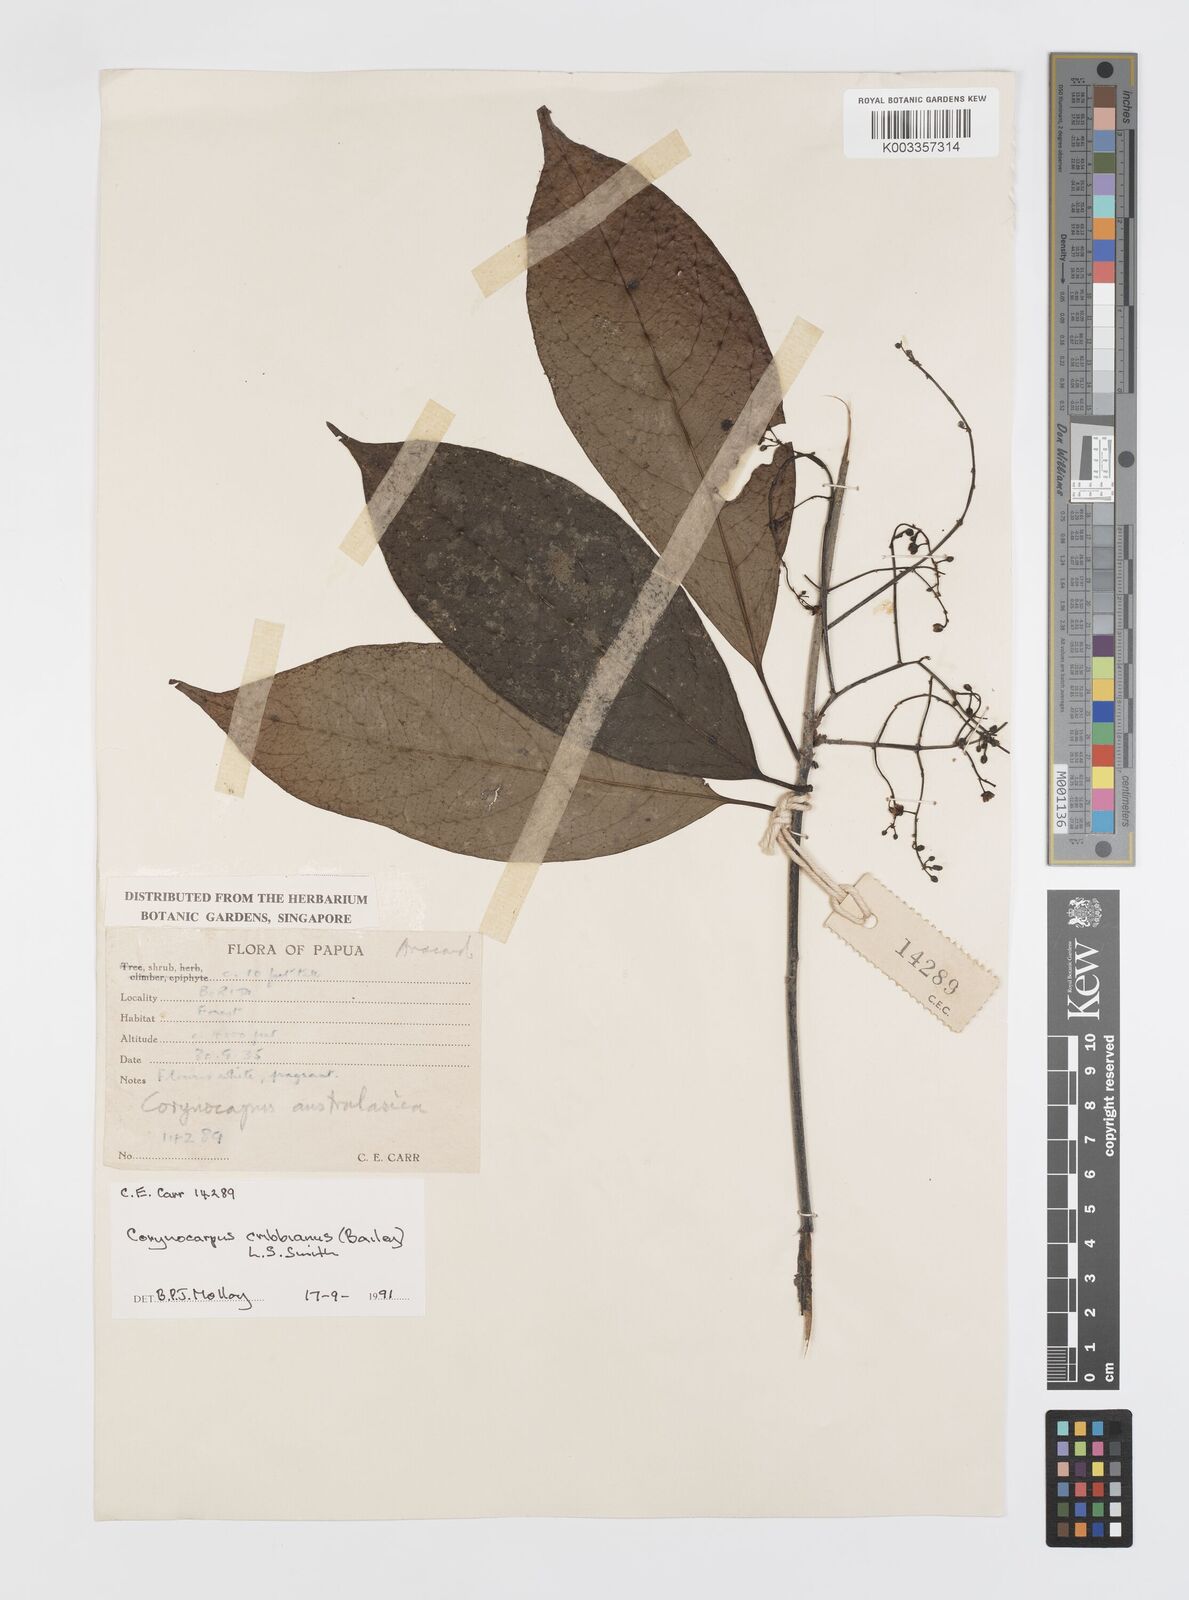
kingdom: Plantae
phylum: Tracheophyta
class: Magnoliopsida
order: Cucurbitales
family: Corynocarpaceae
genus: Corynocarpus
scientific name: Corynocarpus cribbianus
